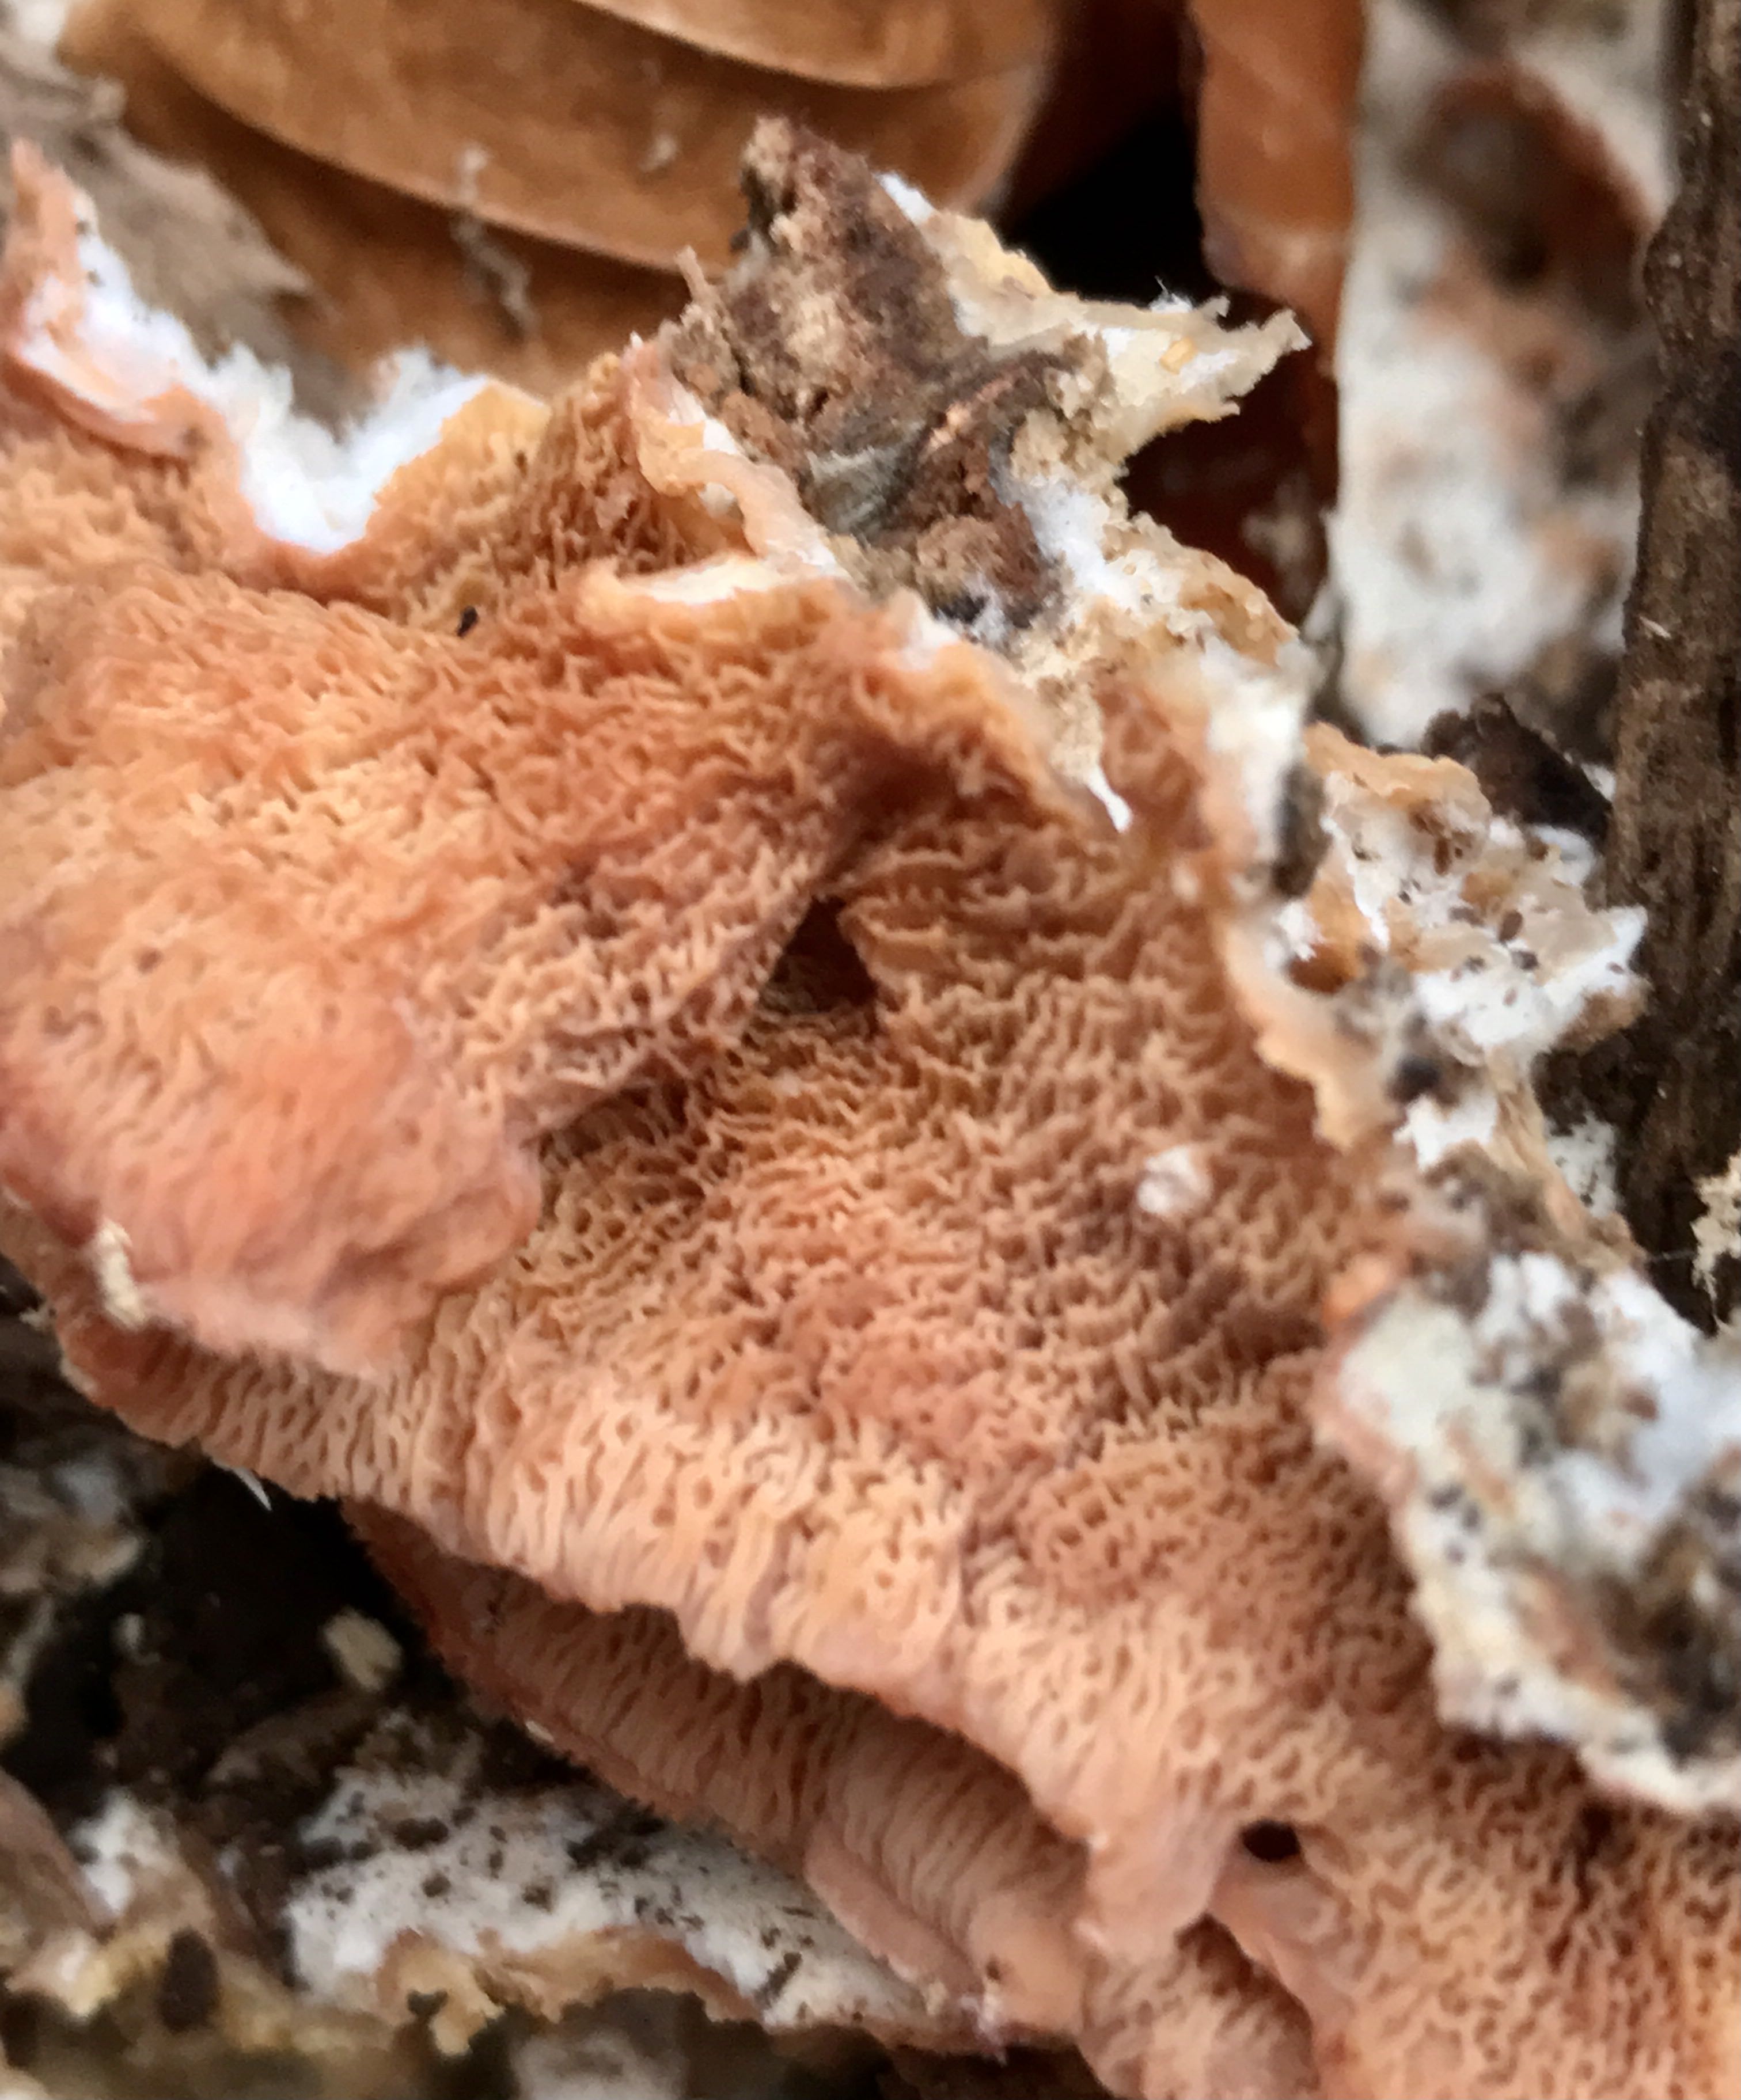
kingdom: Fungi
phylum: Basidiomycota
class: Agaricomycetes
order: Polyporales
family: Meruliaceae
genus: Phlebia
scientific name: Phlebia tremellosa
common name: bævrende åresvamp
